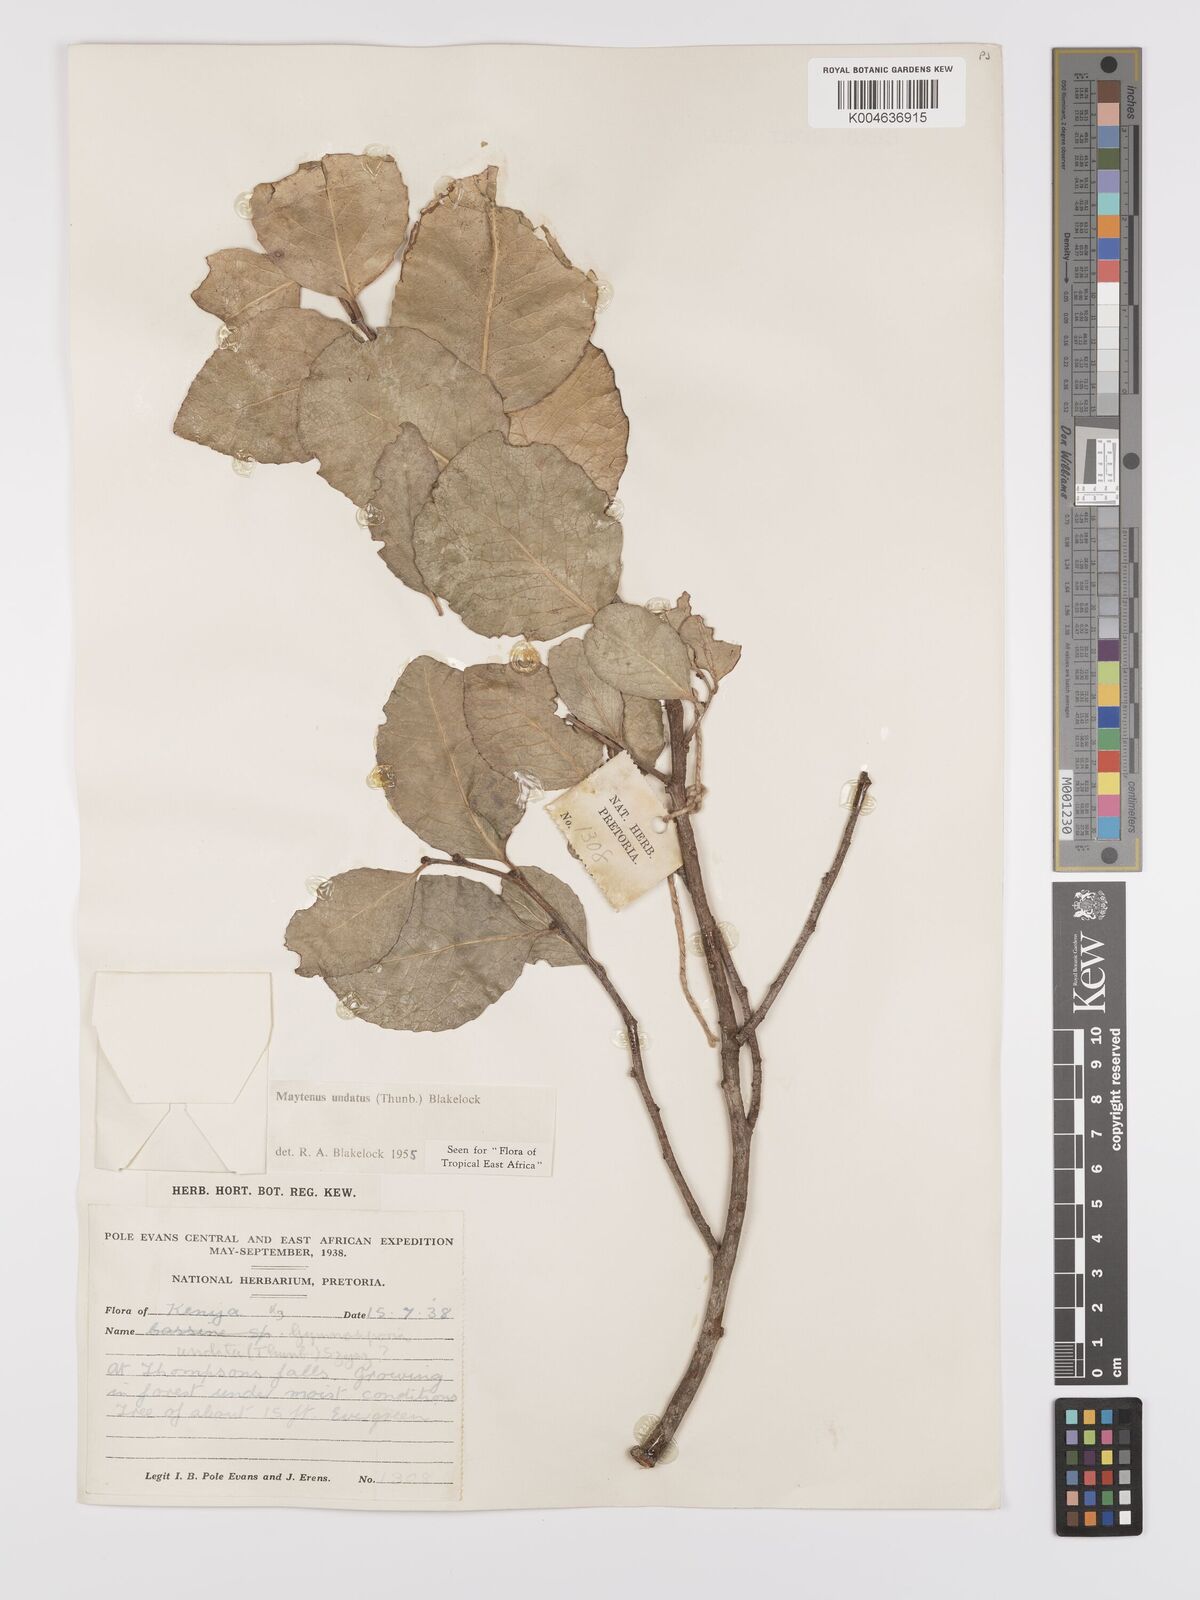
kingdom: Plantae
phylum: Tracheophyta
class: Magnoliopsida
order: Celastrales
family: Celastraceae
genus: Gymnosporia
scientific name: Gymnosporia undata
